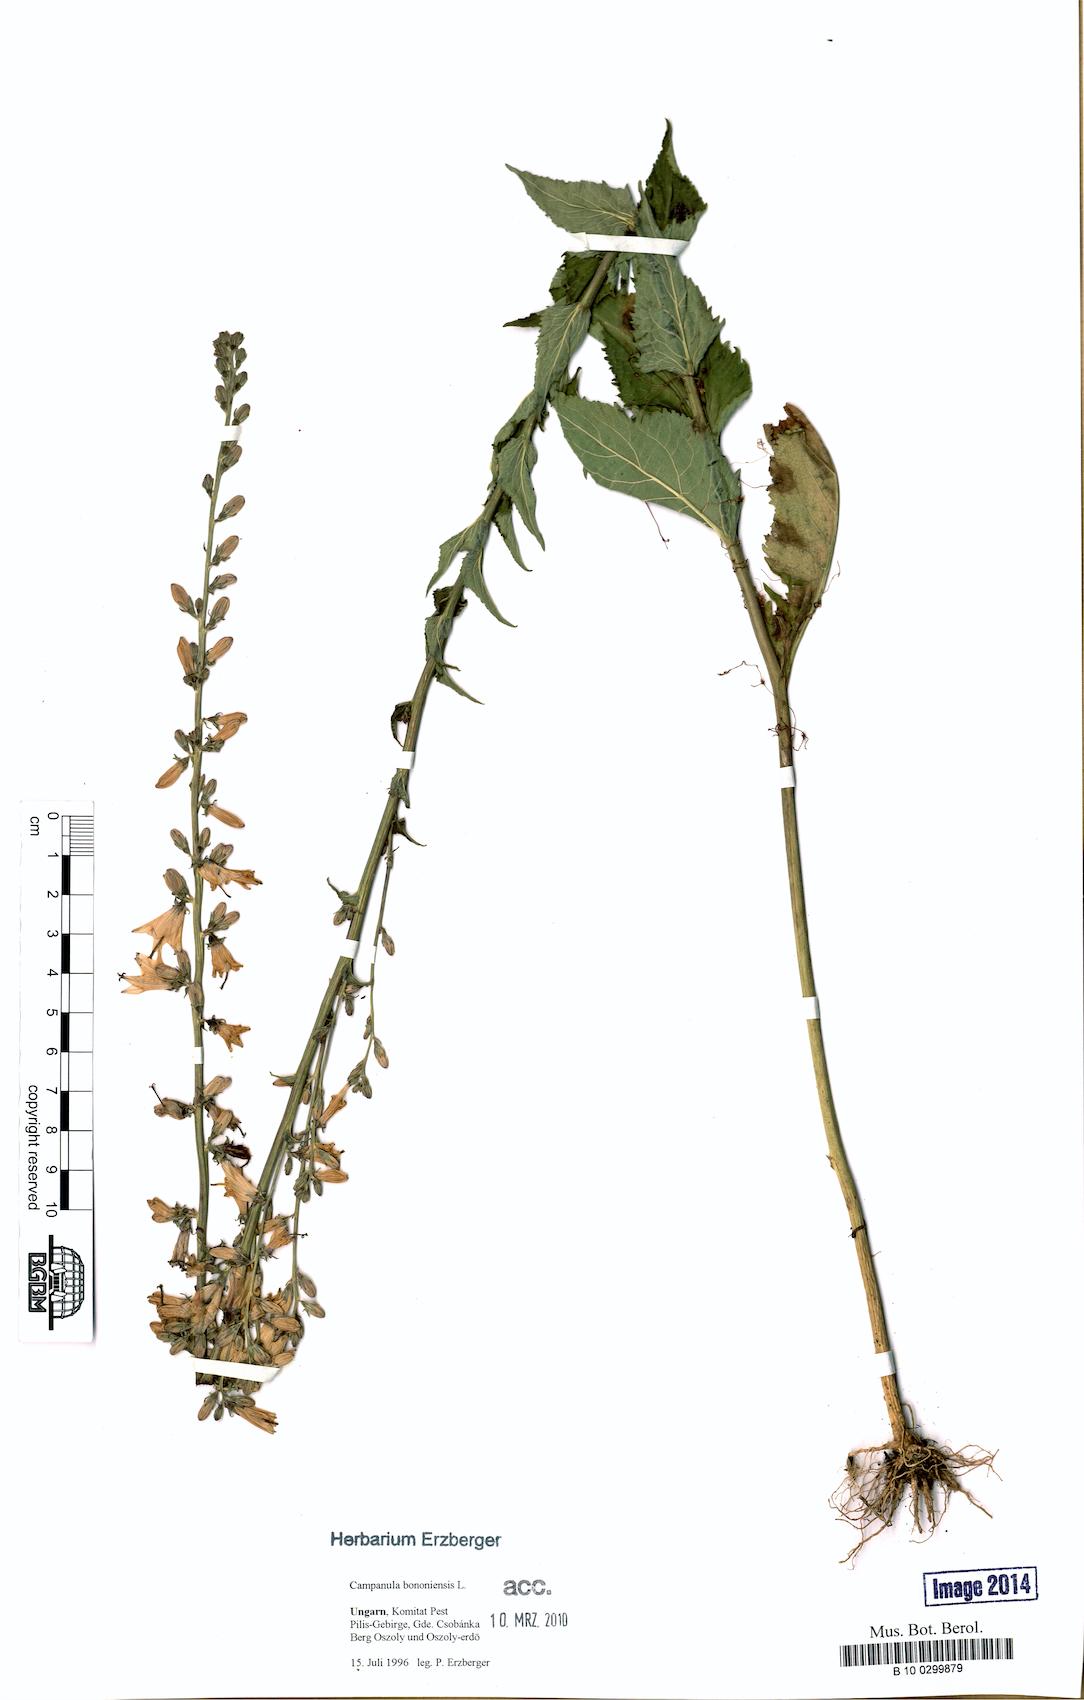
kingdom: Plantae
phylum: Tracheophyta
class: Magnoliopsida
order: Asterales
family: Campanulaceae
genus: Campanula
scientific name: Campanula bononiensis
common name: Pale bellflower
